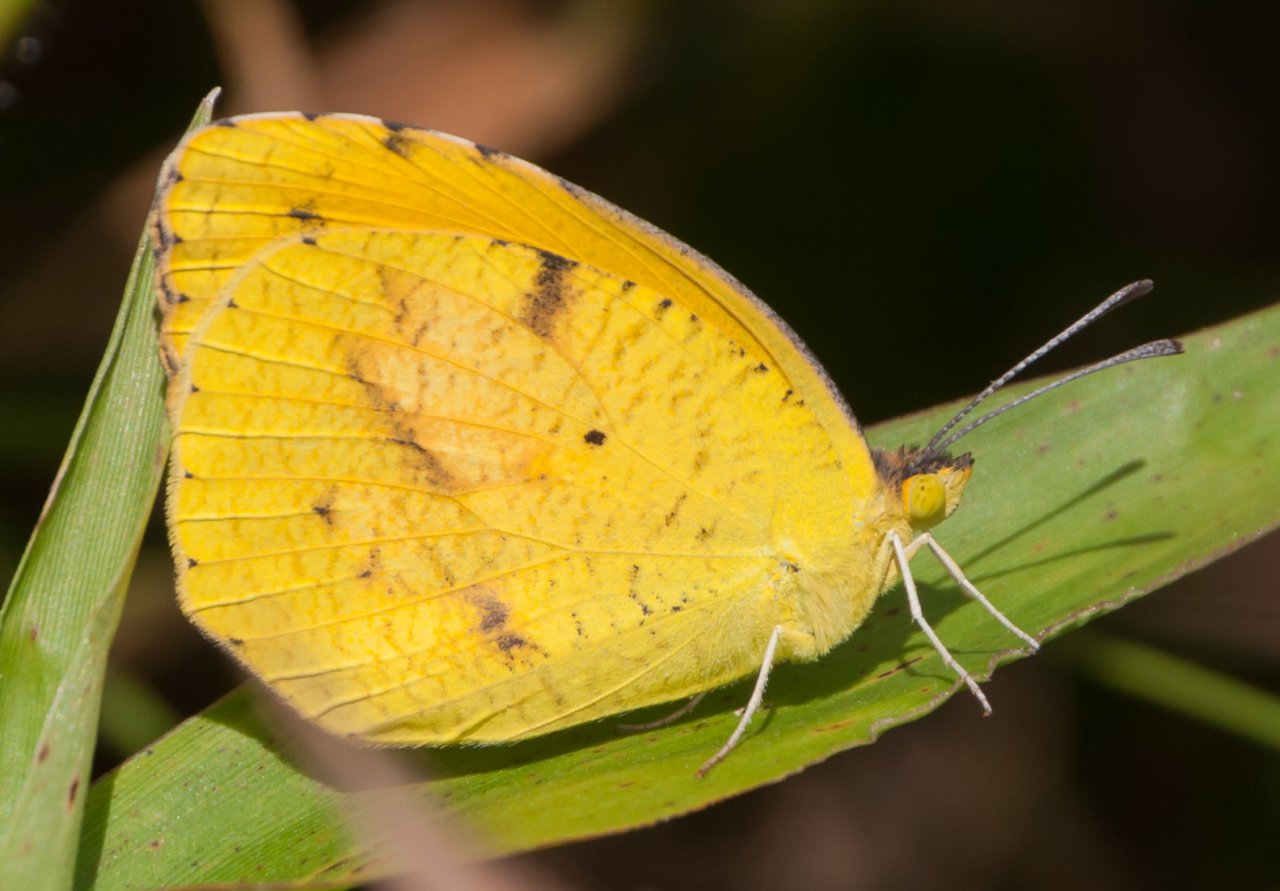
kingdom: Animalia
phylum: Arthropoda
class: Insecta
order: Lepidoptera
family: Pieridae
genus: Abaeis
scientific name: Abaeis nicippe
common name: Sleepy Orange
